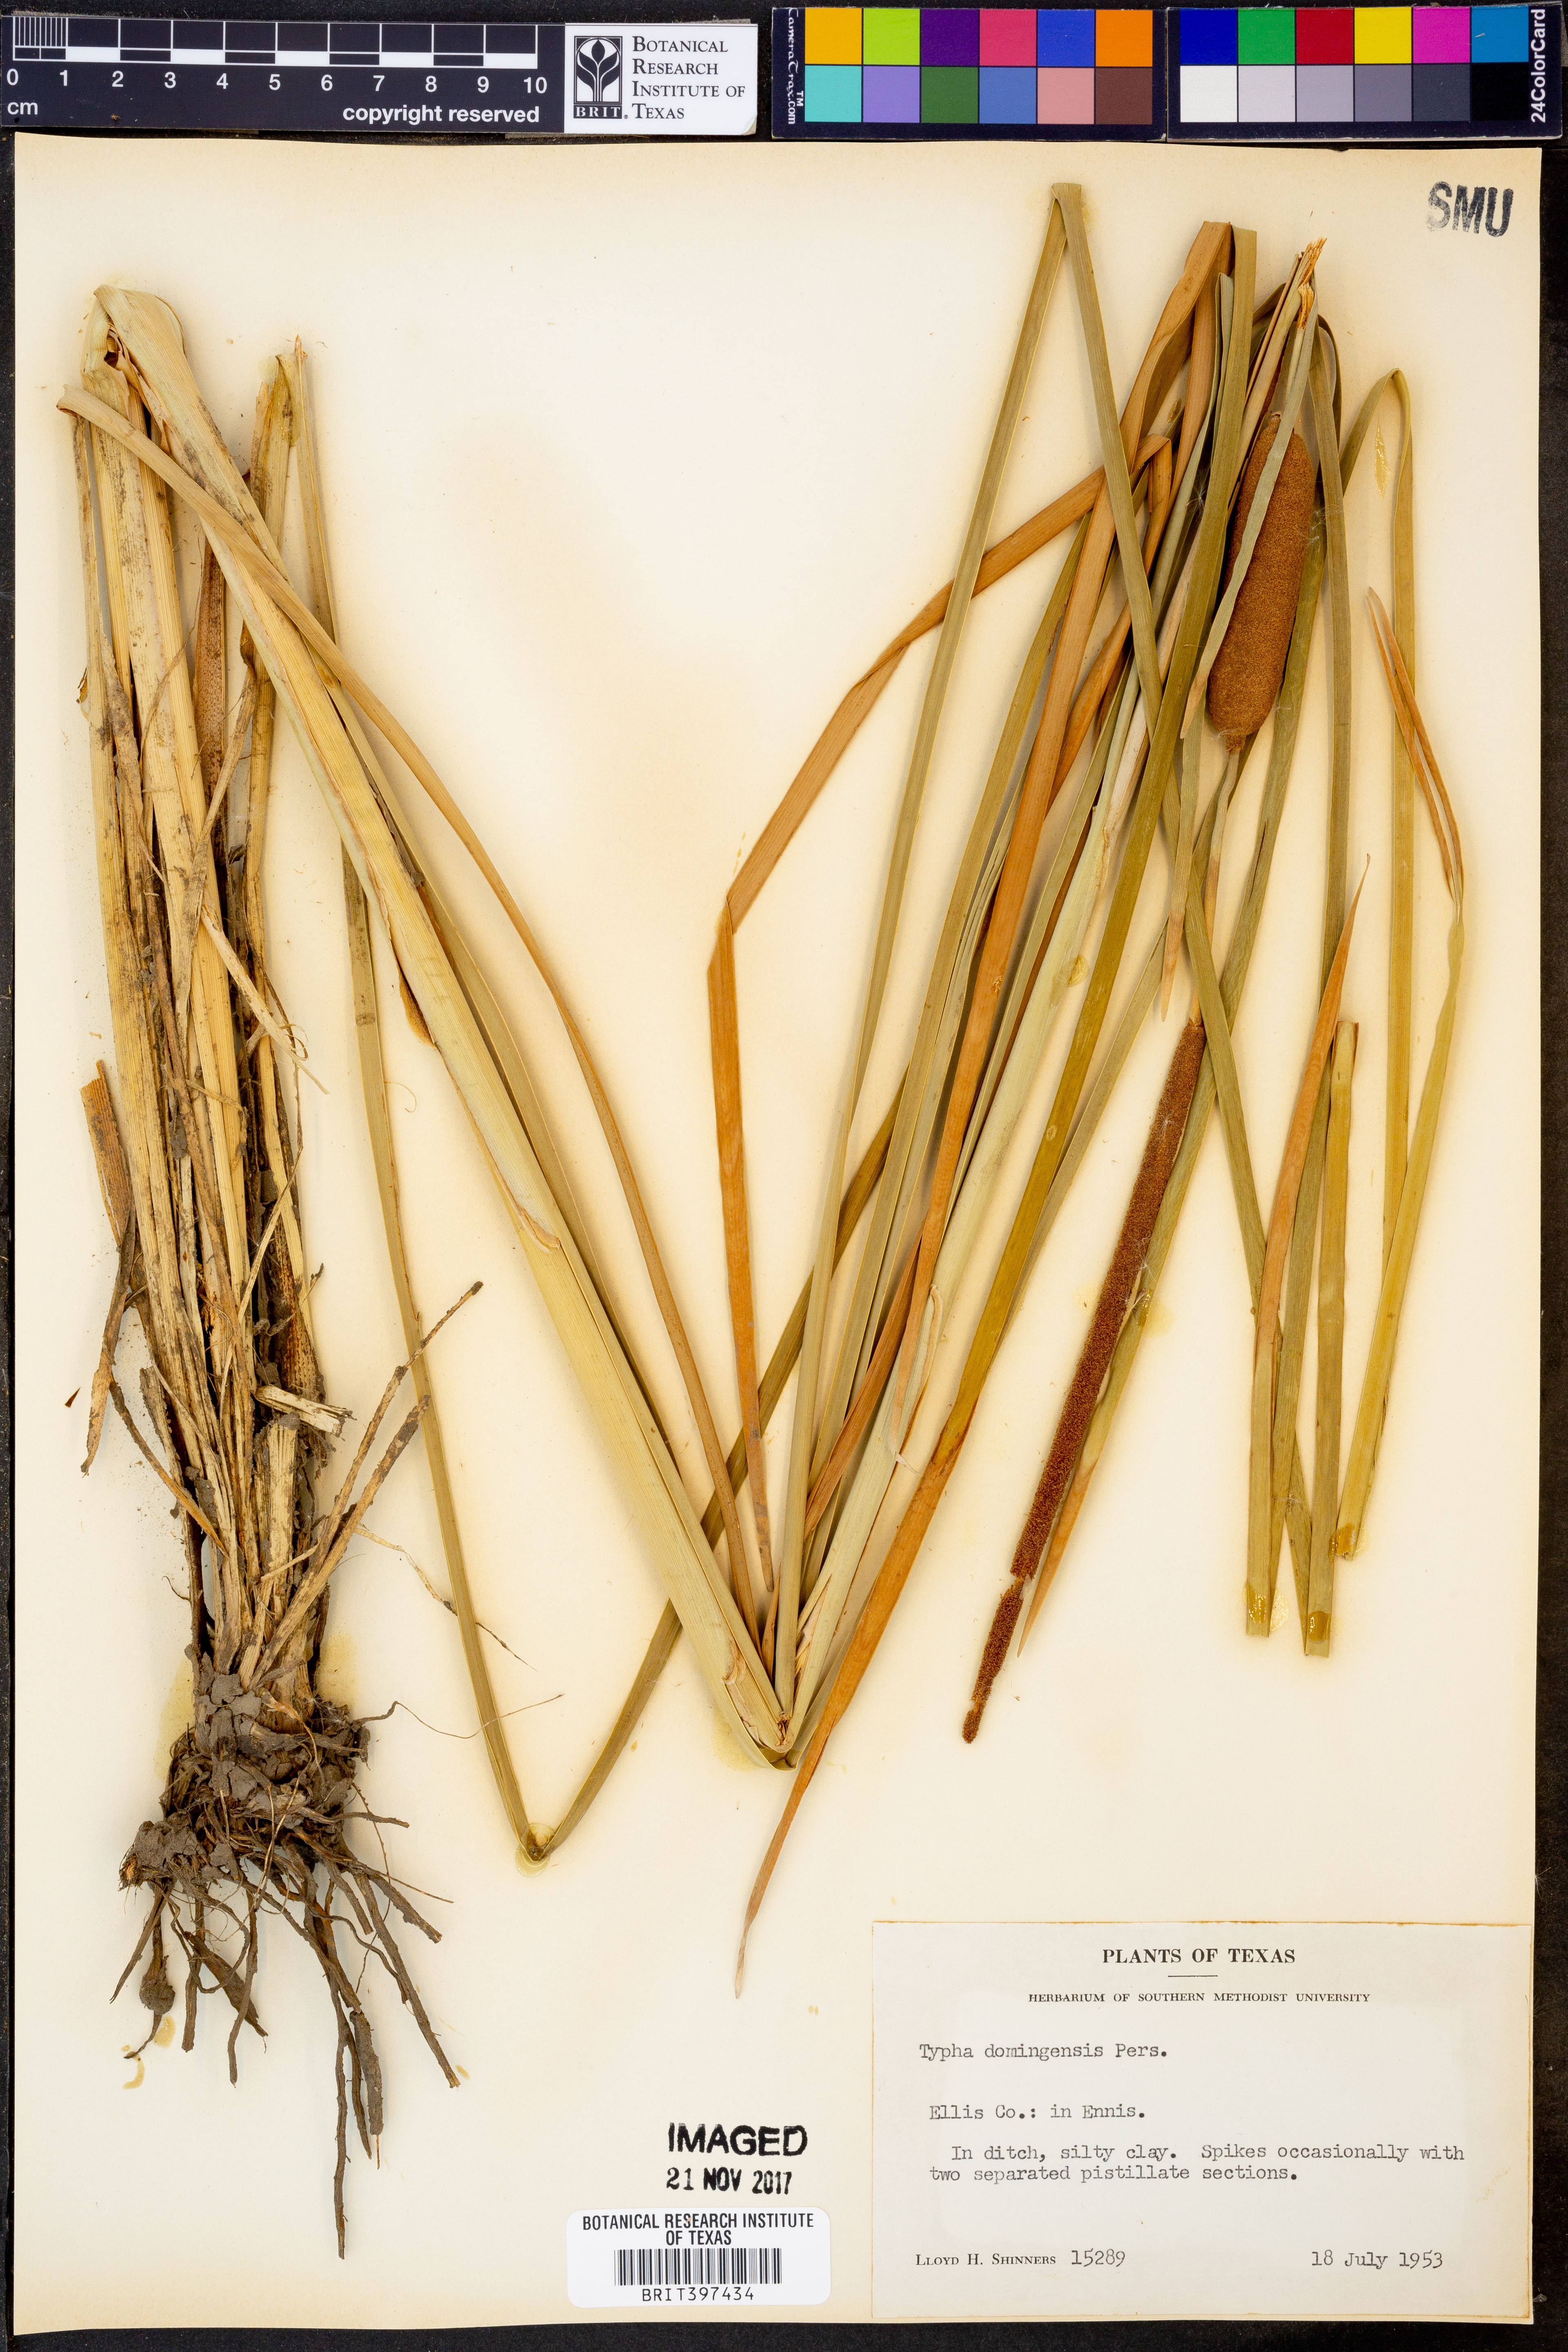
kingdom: Plantae
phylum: Tracheophyta
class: Liliopsida
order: Poales
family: Typhaceae
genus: Typha
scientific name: Typha domingensis
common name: Southern cattail
